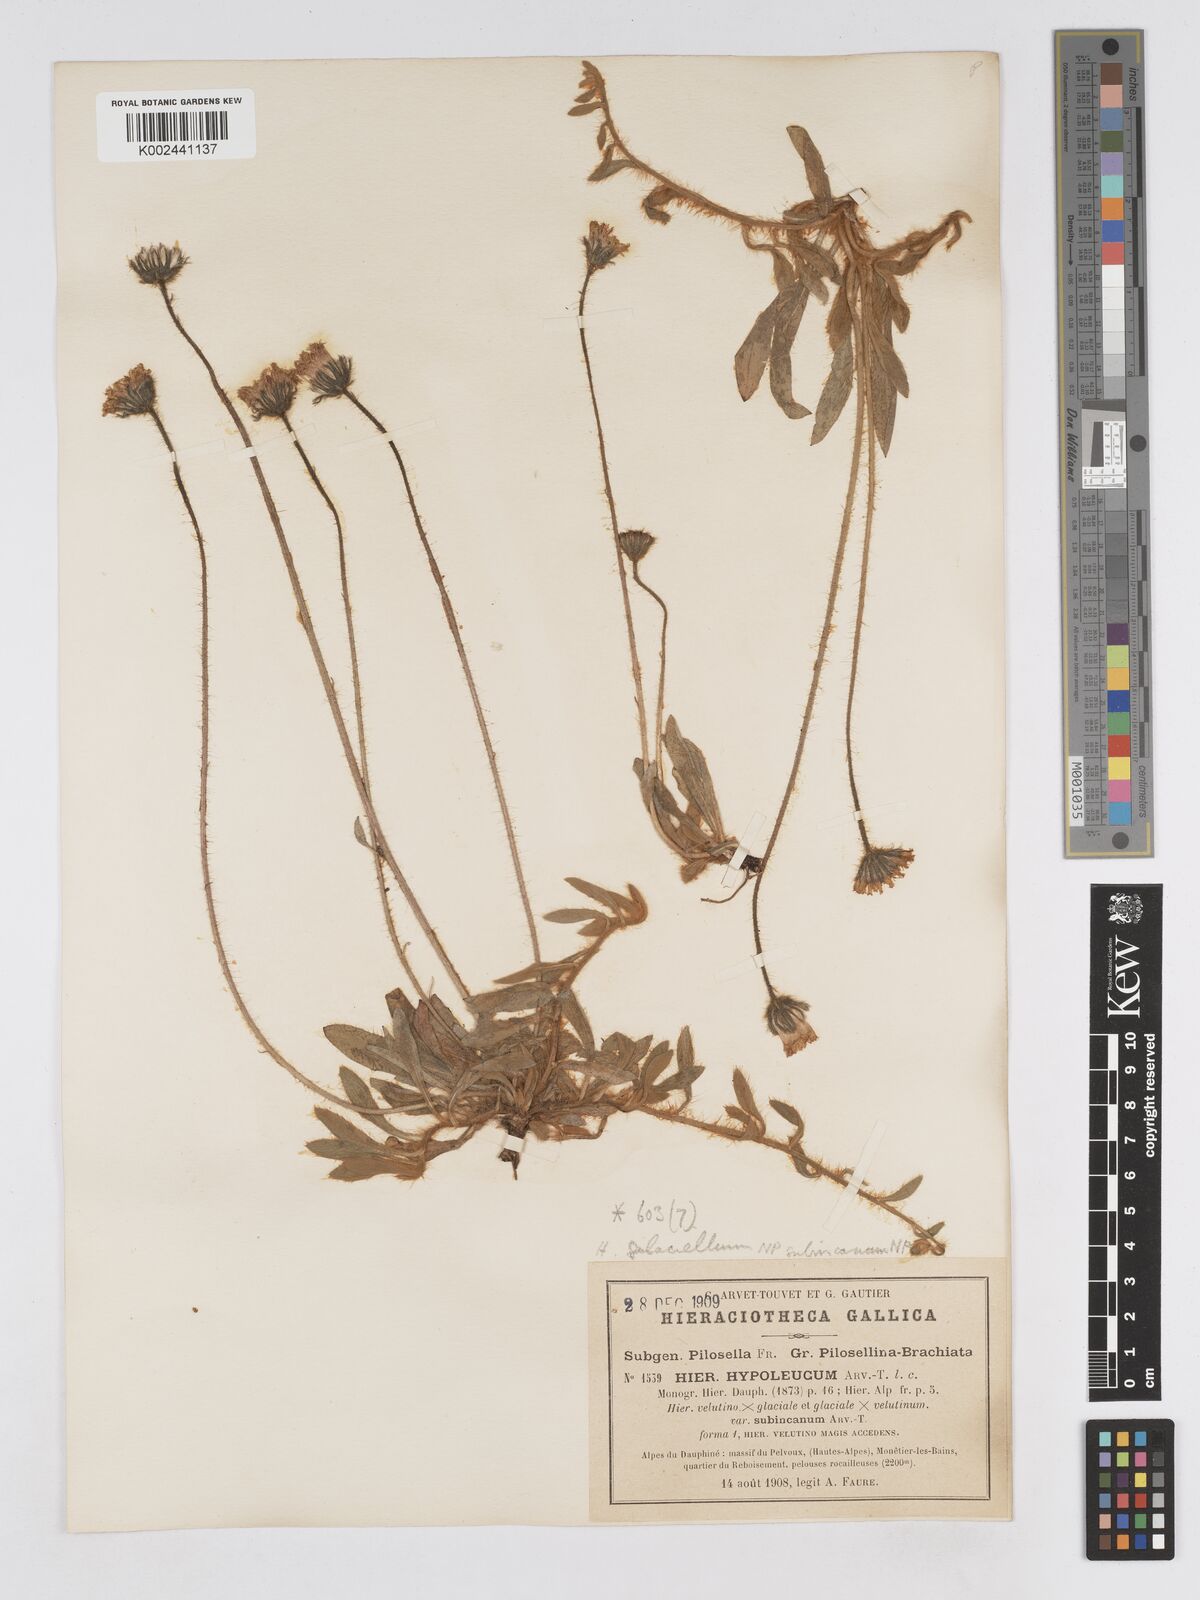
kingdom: Plantae
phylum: Tracheophyta
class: Magnoliopsida
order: Asterales
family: Asteraceae
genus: Pilosella
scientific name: Pilosella hypoleuca
